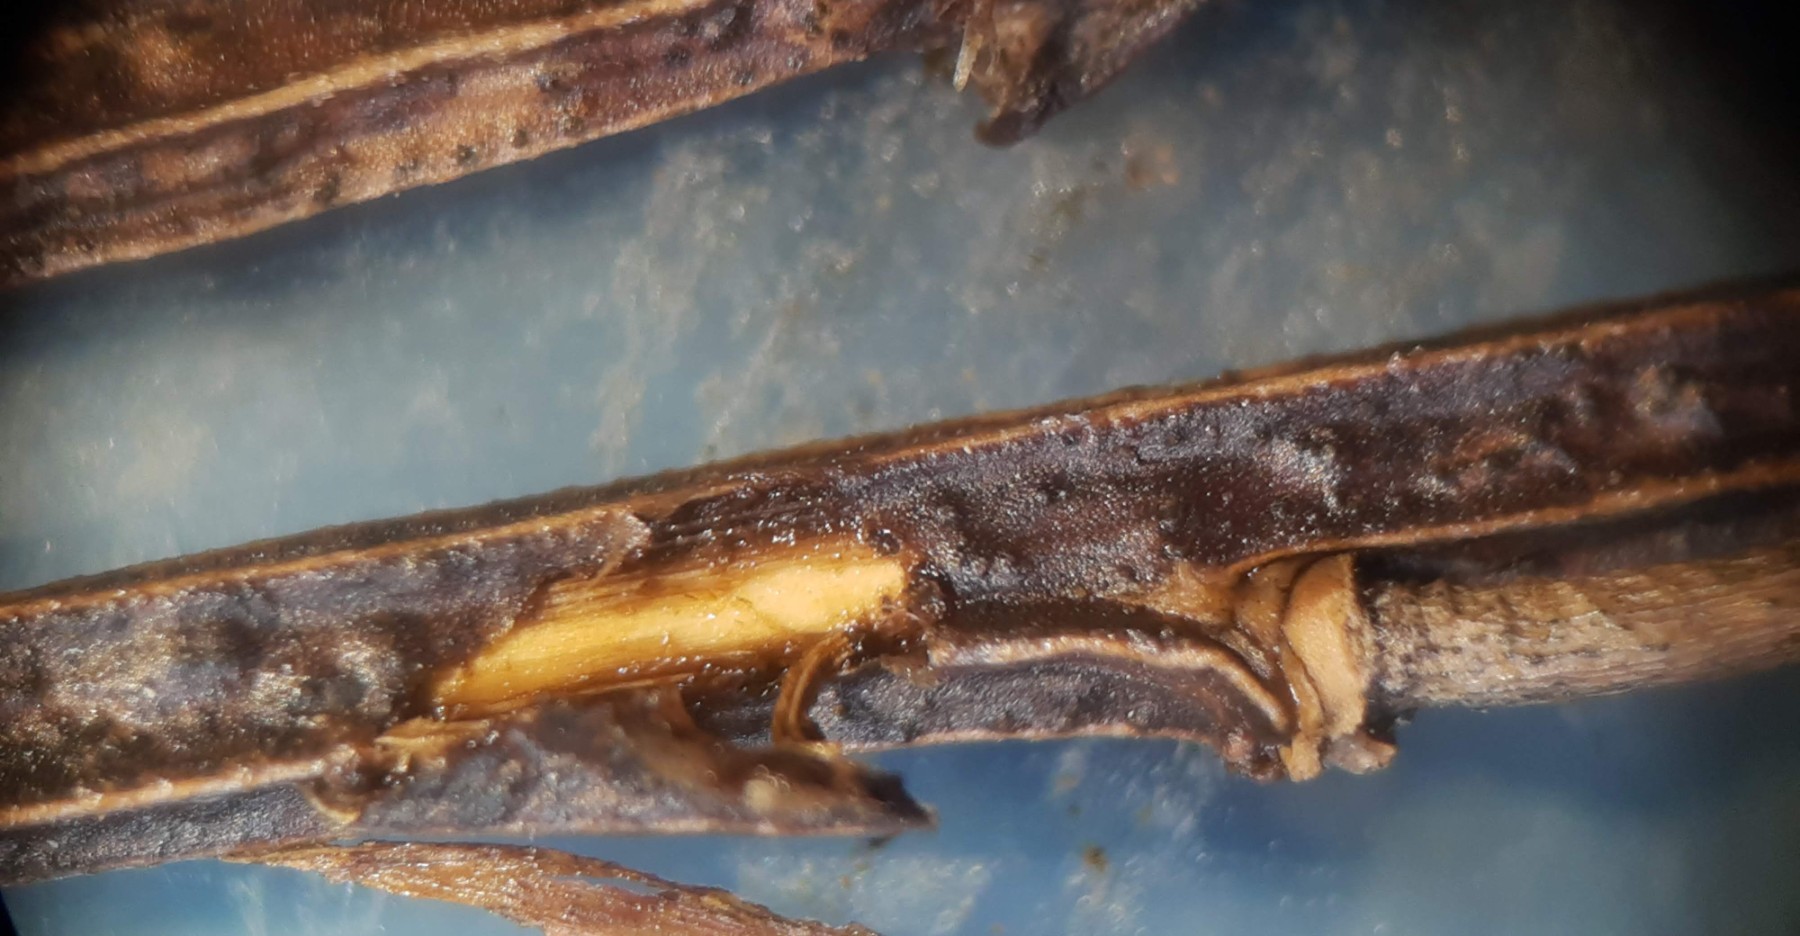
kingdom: Fungi
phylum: Ascomycota
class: Dothideomycetes
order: Pleosporales
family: Cucurbitariaceae
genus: Cucurbitaria
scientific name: Cucurbitaria spartii
